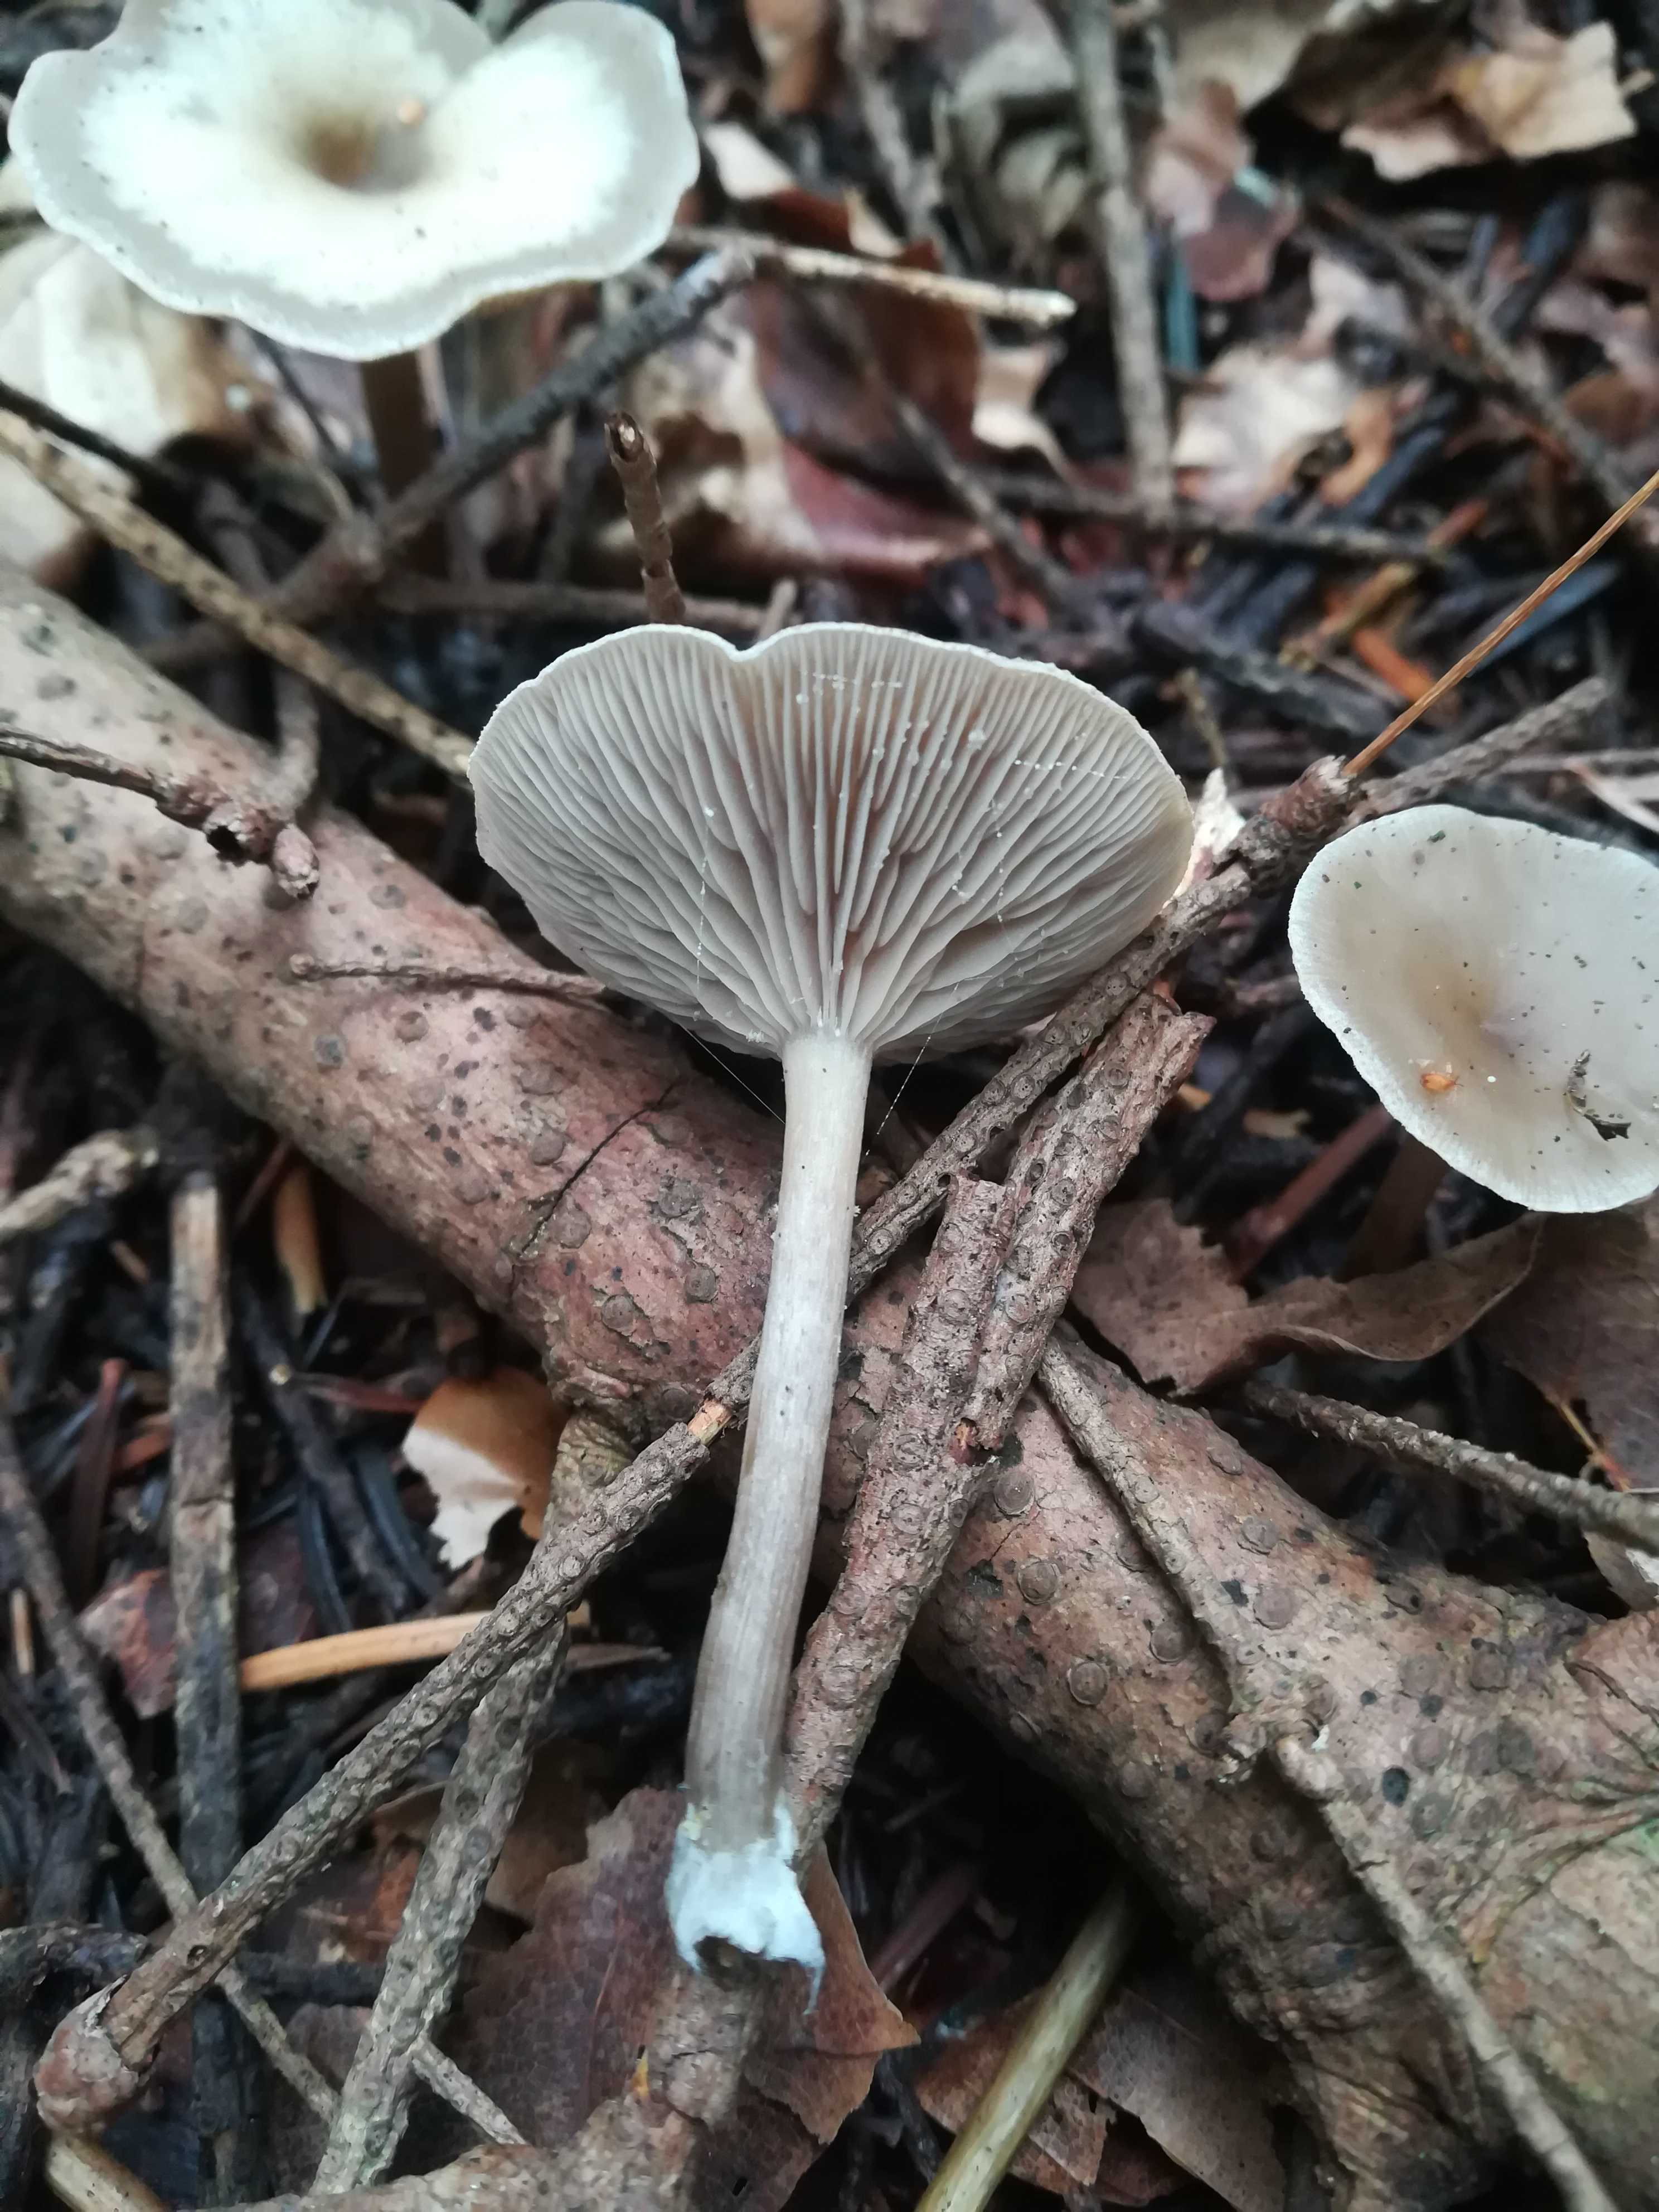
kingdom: Fungi
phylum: Basidiomycota
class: Agaricomycetes
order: Agaricales
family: Tricholomataceae
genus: Clitocybe
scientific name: Clitocybe
